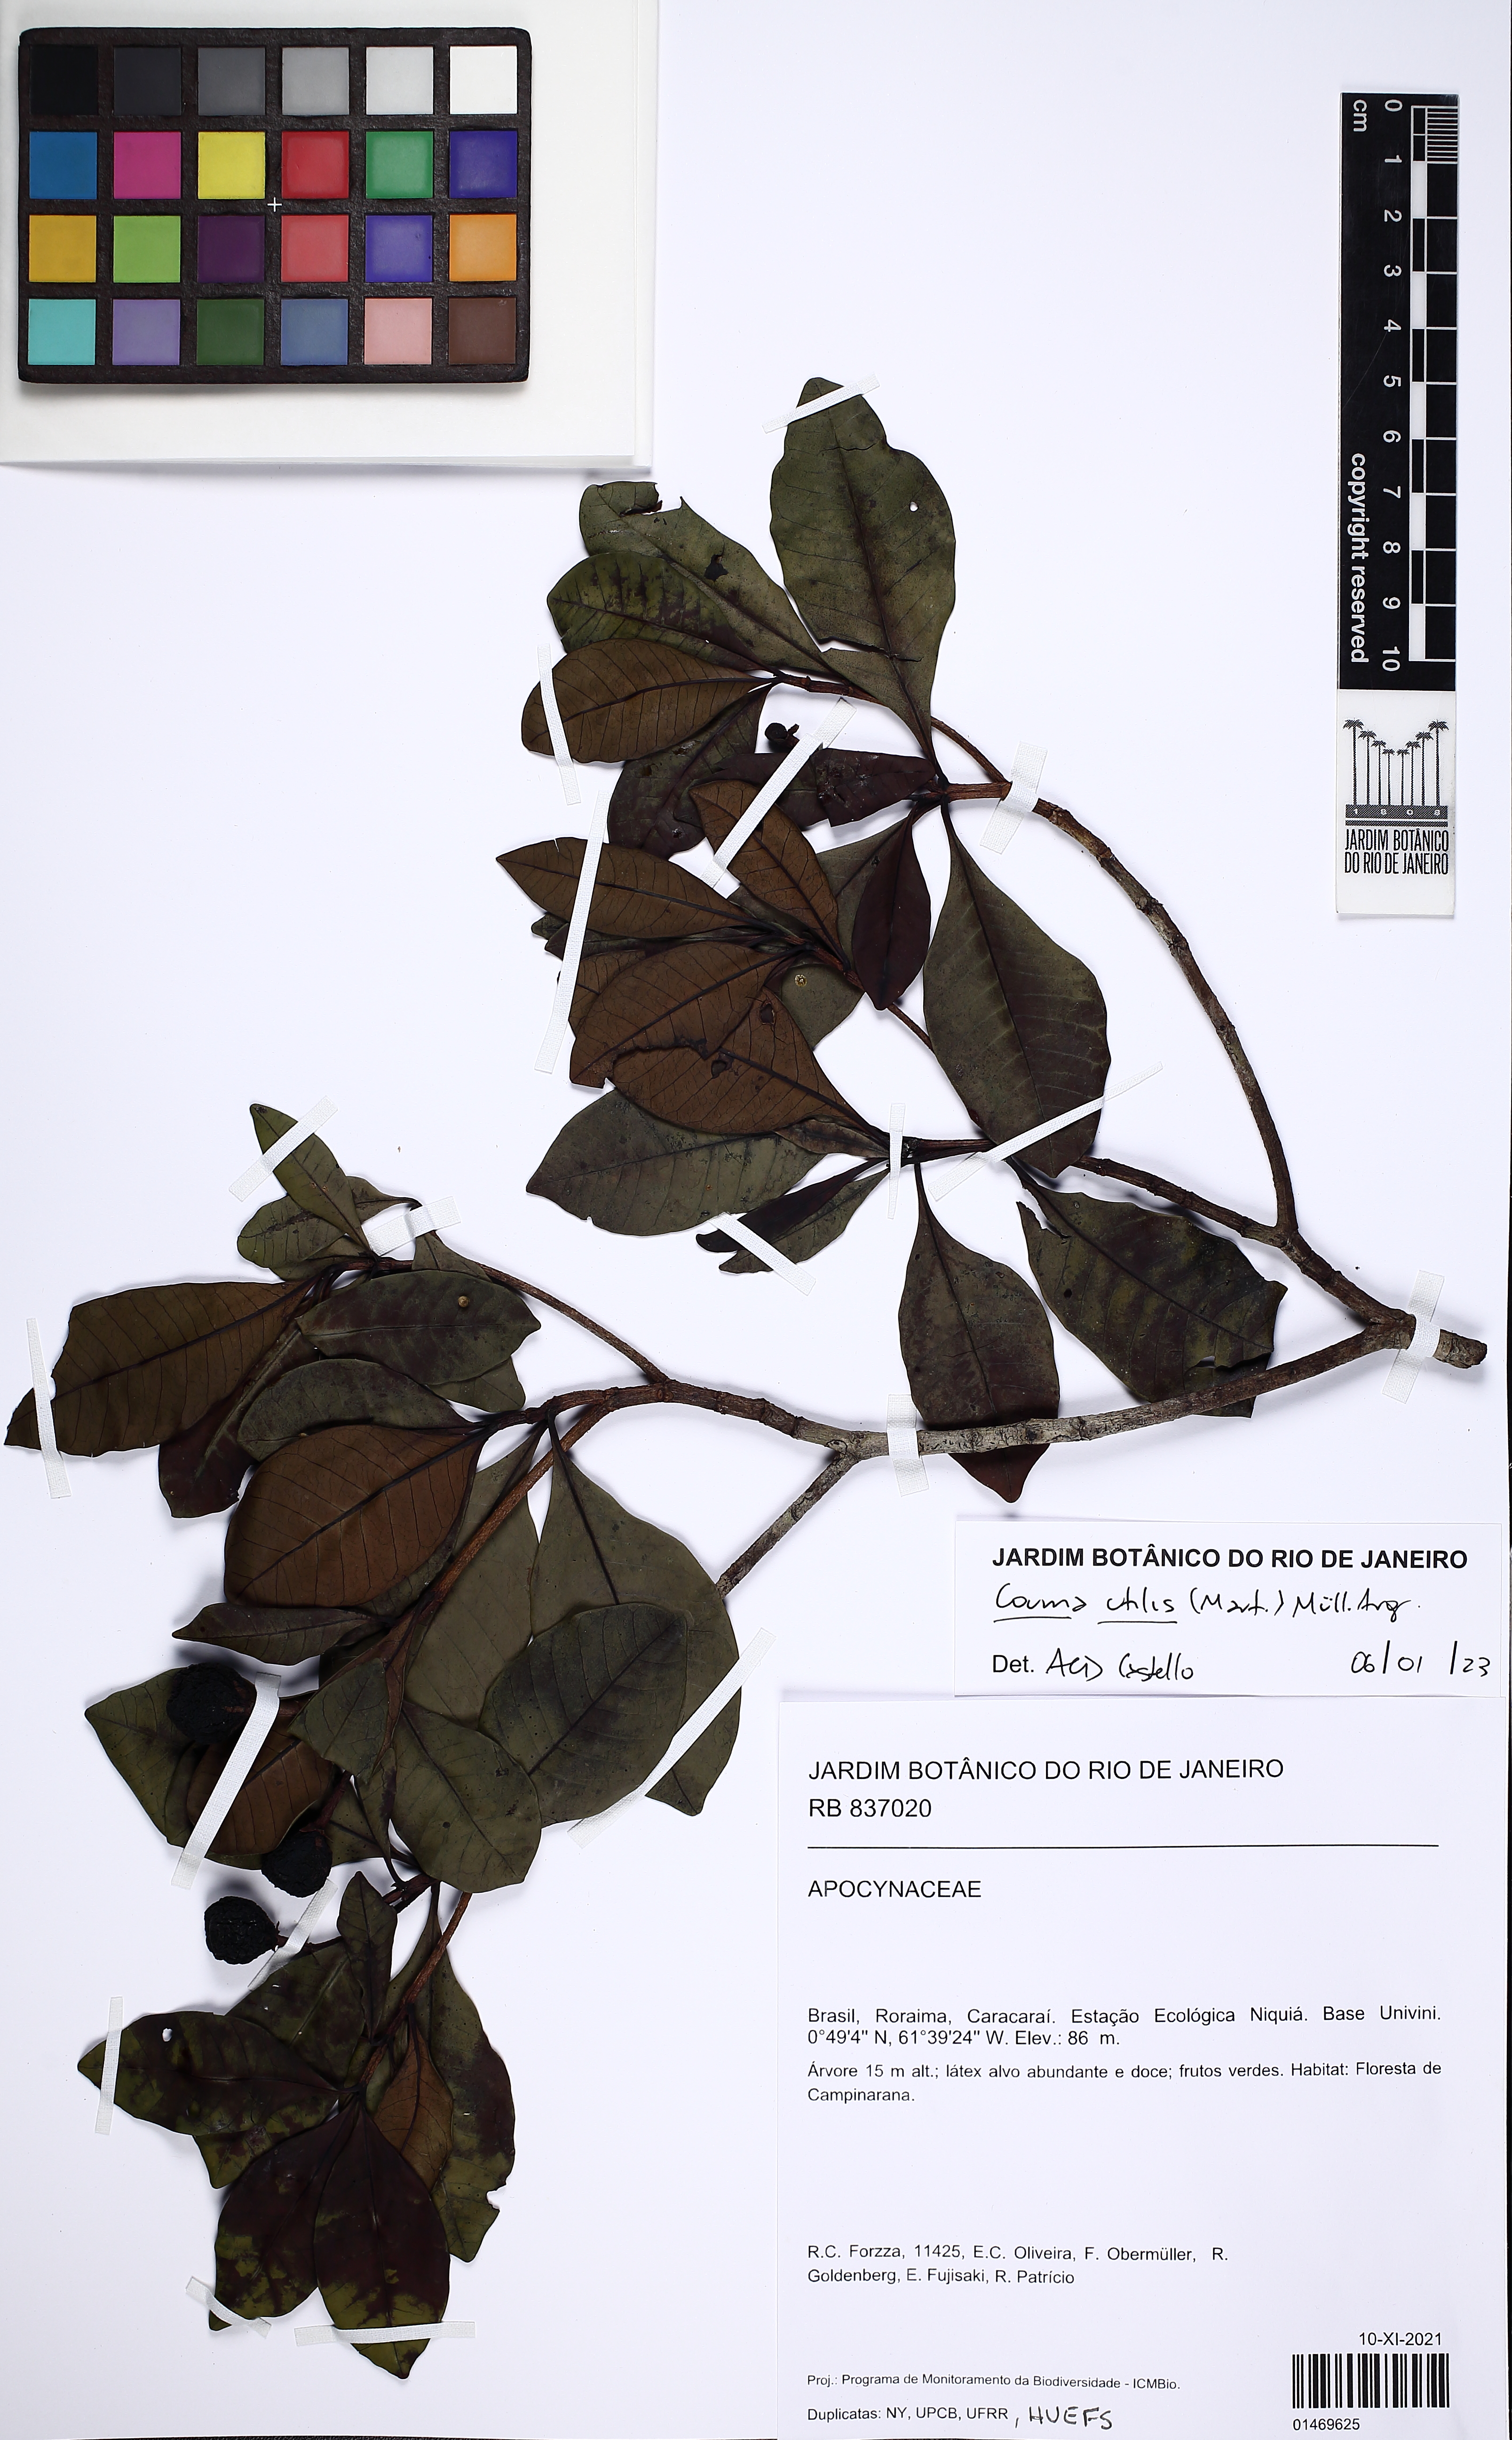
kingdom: Plantae
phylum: Tracheophyta
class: Magnoliopsida
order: Gentianales
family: Apocynaceae
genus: Couma
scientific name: Couma utilis
